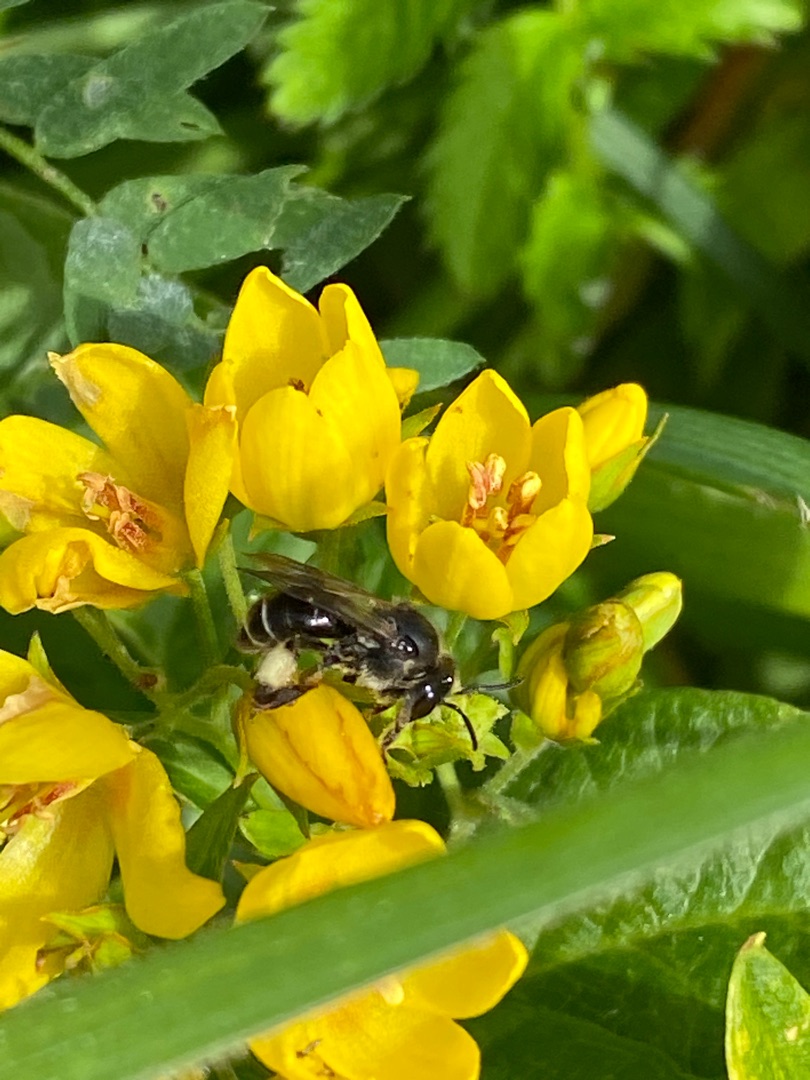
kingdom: Plantae
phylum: Tracheophyta
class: Magnoliopsida
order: Ericales
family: Primulaceae
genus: Lysimachia
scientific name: Lysimachia vulgaris
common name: Almindelig fredløs
